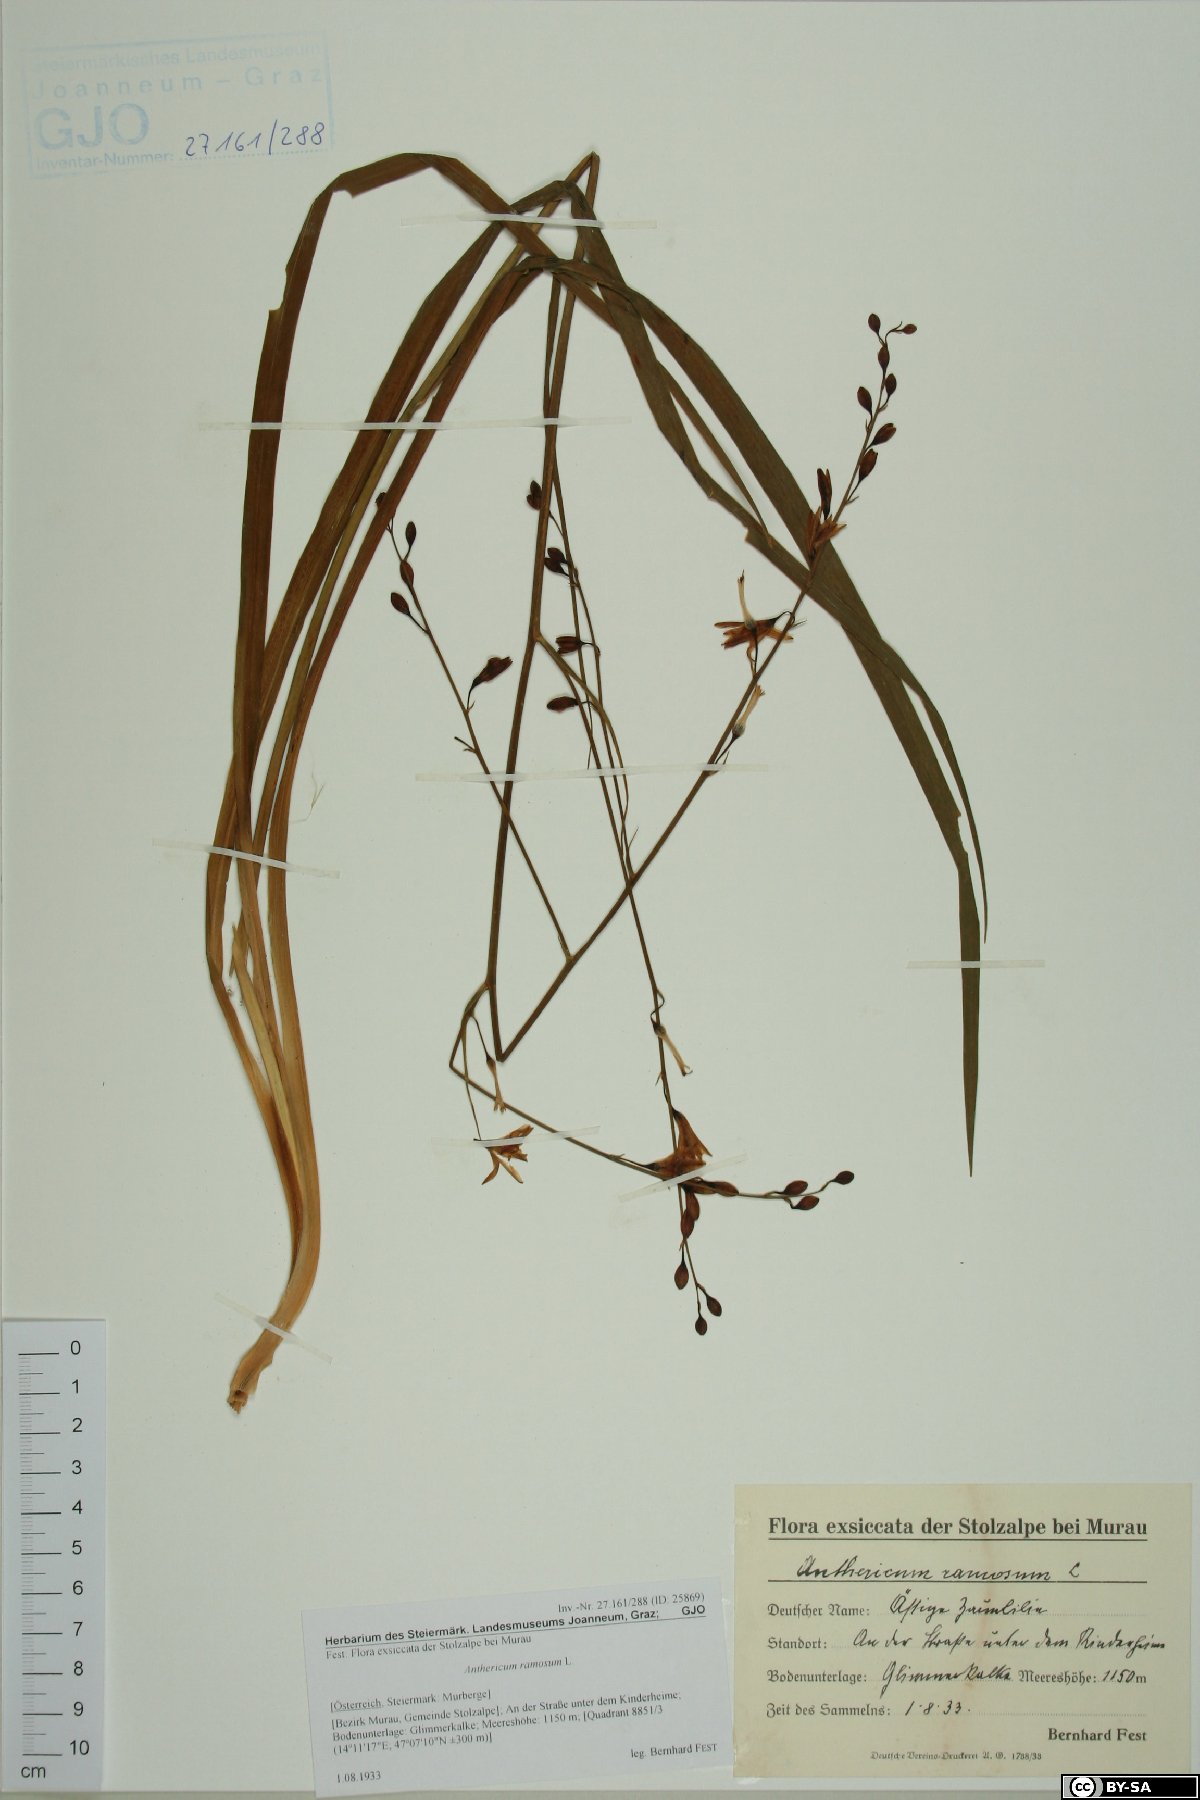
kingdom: Plantae
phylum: Tracheophyta
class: Liliopsida
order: Asparagales
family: Asparagaceae
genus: Anthericum
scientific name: Anthericum ramosum
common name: Branched st. bernard's-lily
